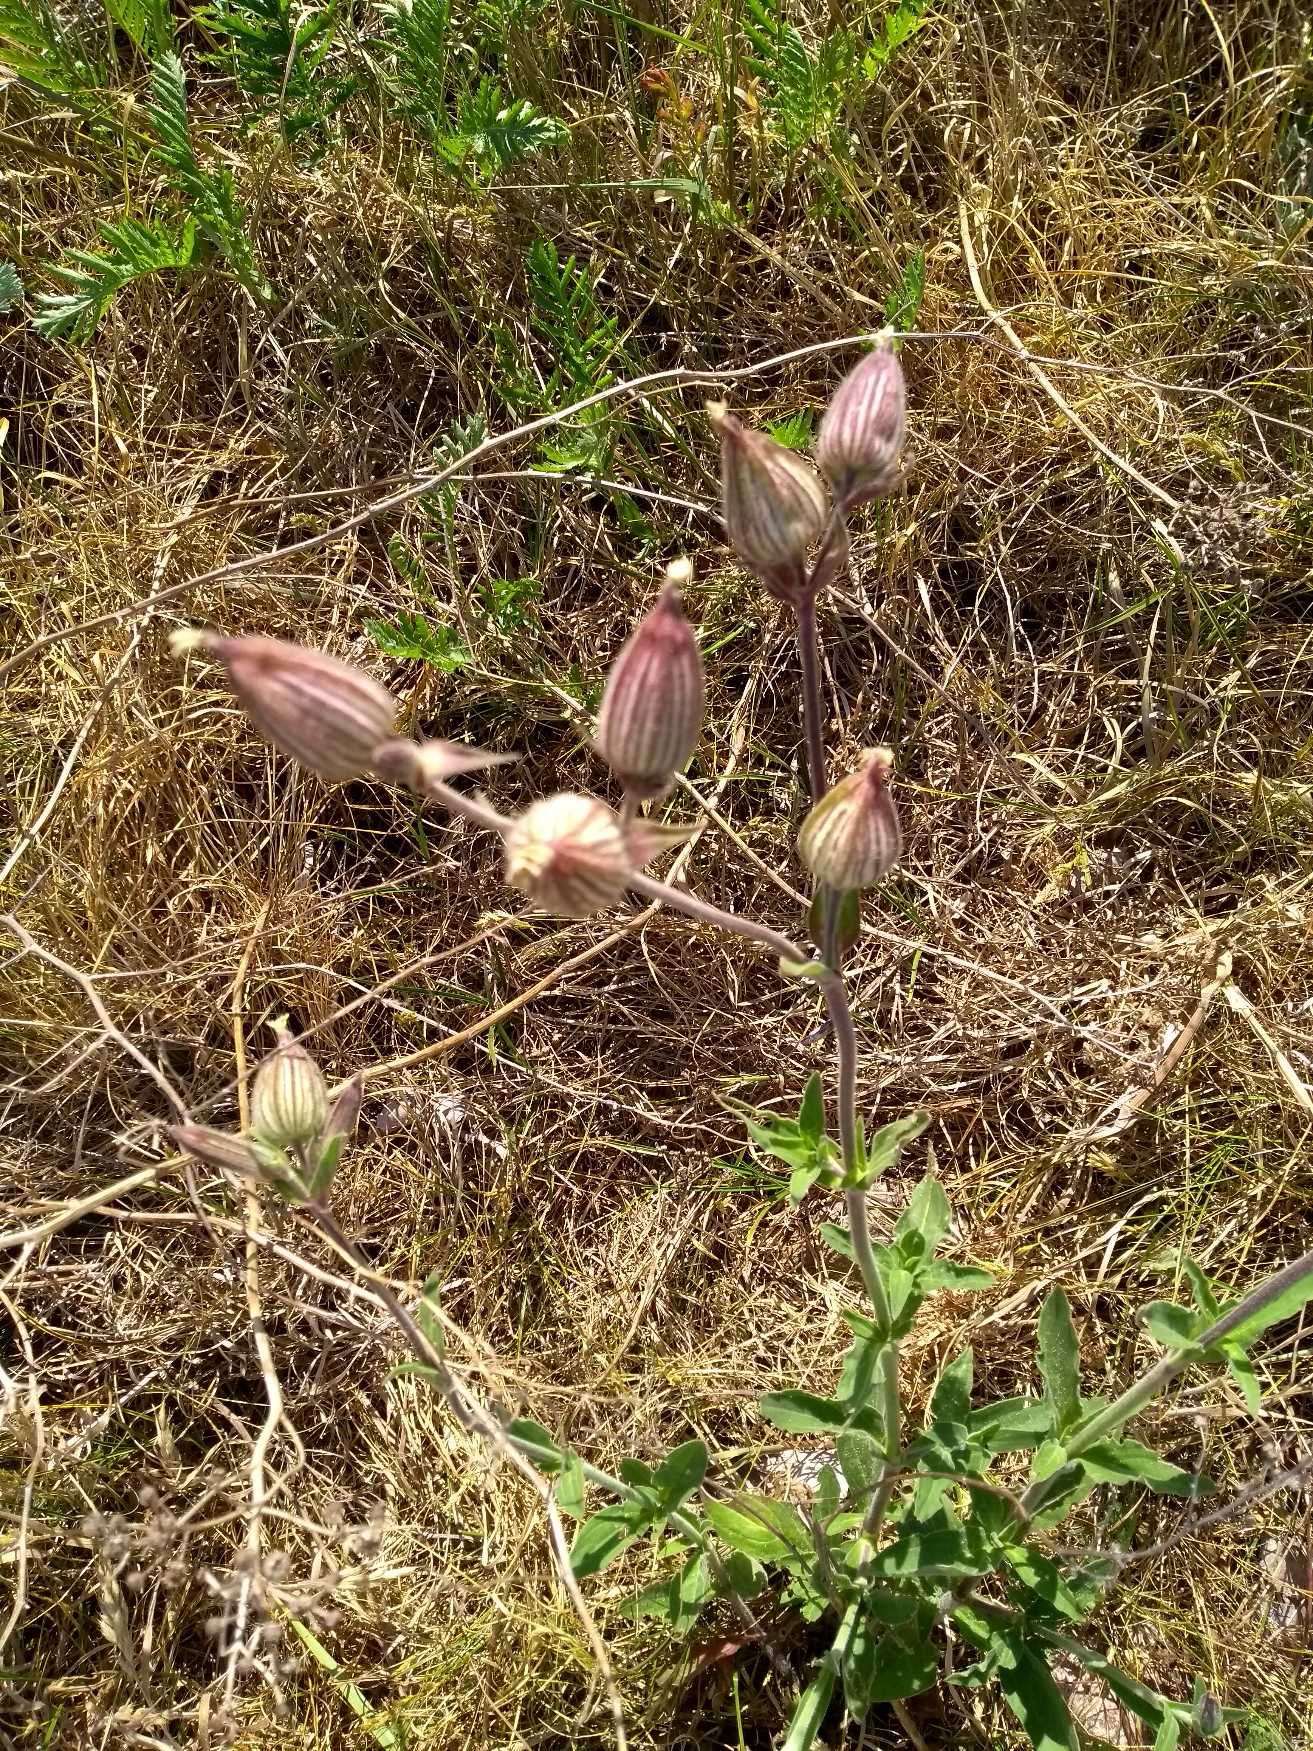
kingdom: Plantae
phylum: Tracheophyta
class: Magnoliopsida
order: Caryophyllales
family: Caryophyllaceae
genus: Silene
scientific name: Silene latifolia
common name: Aftenpragtstjerne
